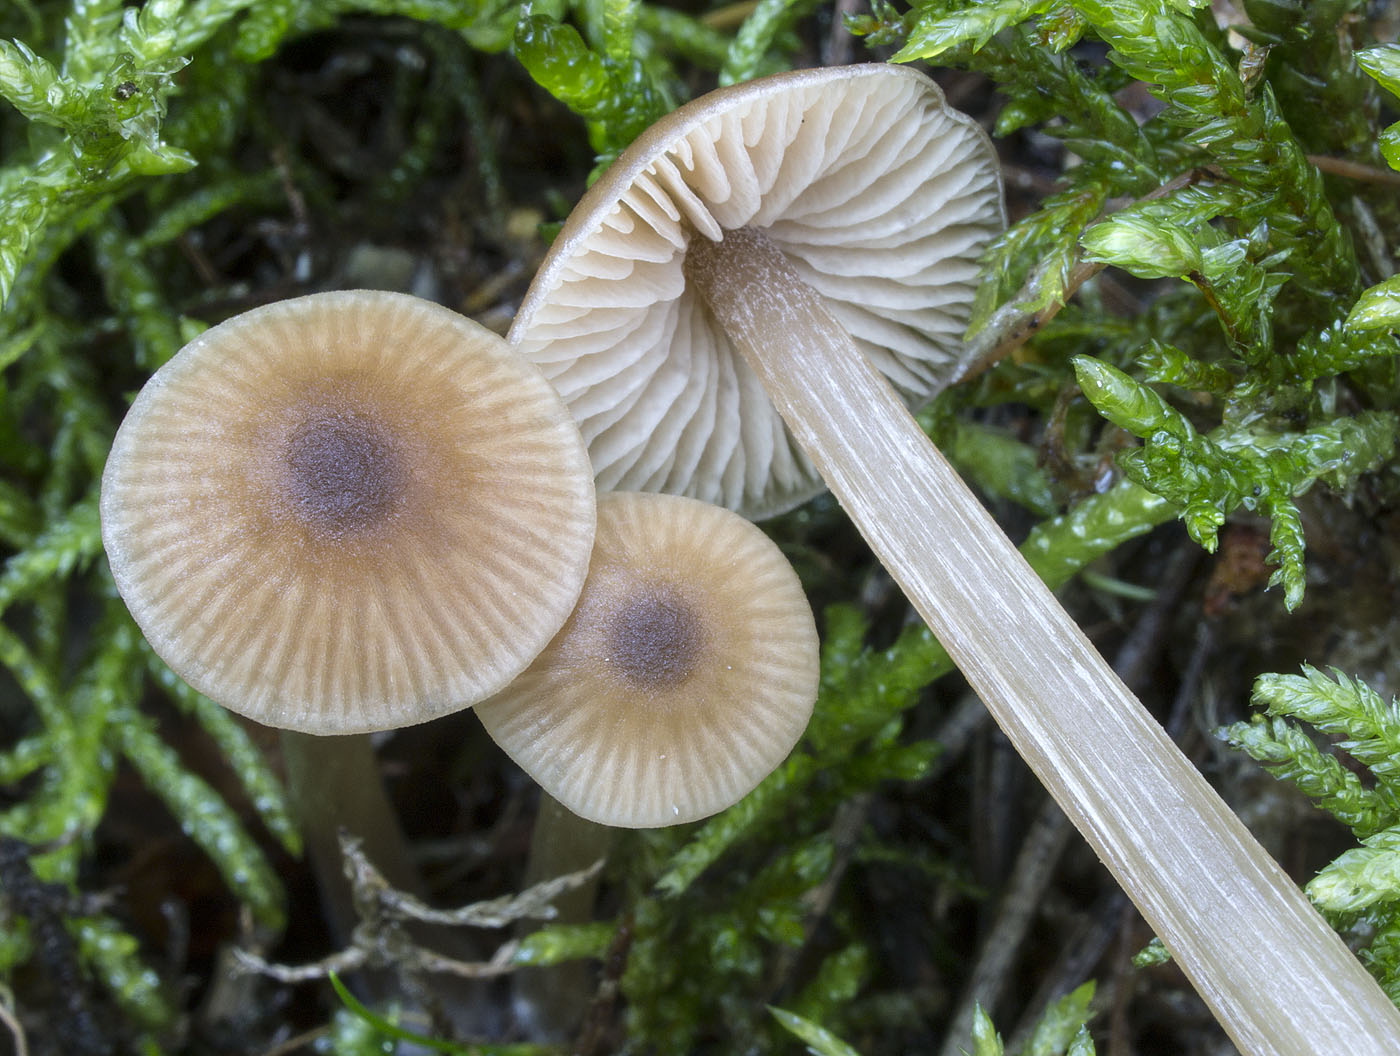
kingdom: Fungi
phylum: Basidiomycota
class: Agaricomycetes
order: Agaricales
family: Entolomataceae
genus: Entoloma
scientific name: Entoloma cetratum
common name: voks-rødblad
